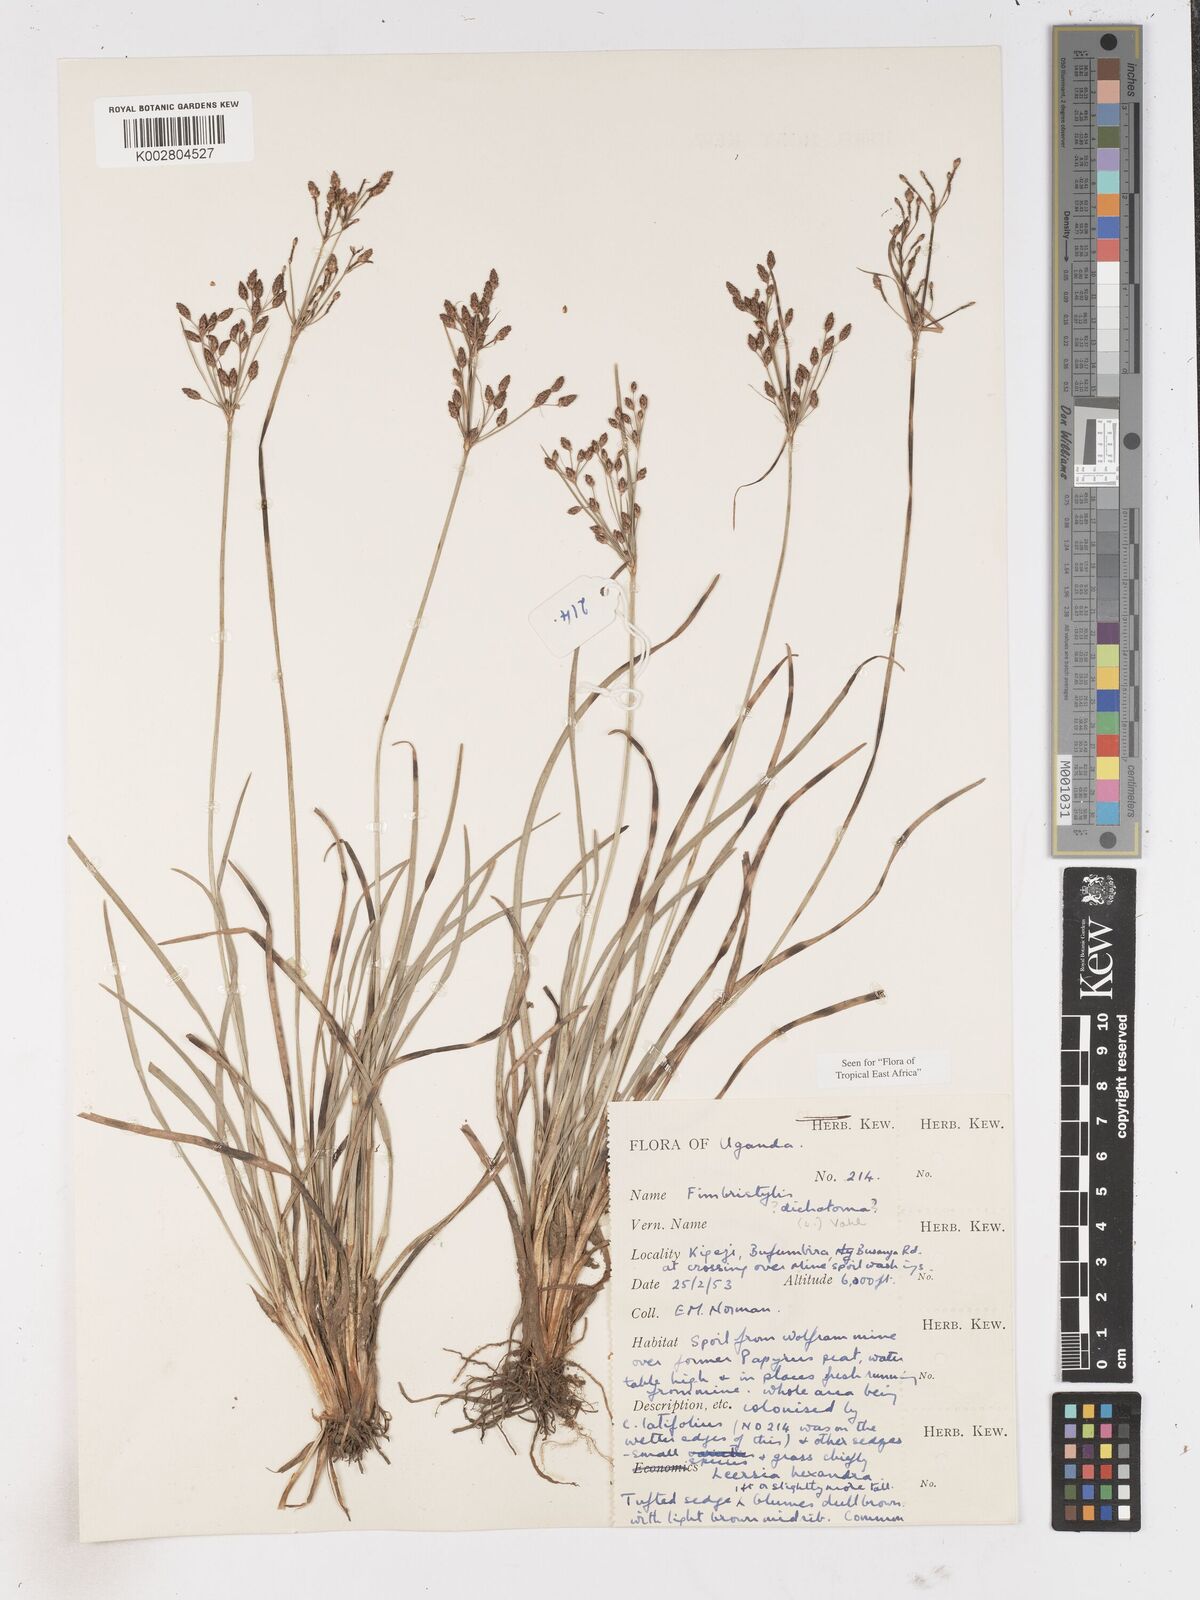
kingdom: Plantae
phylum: Tracheophyta
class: Liliopsida
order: Poales
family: Cyperaceae
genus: Fimbristylis
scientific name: Fimbristylis dichotoma
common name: Forked fimbry
